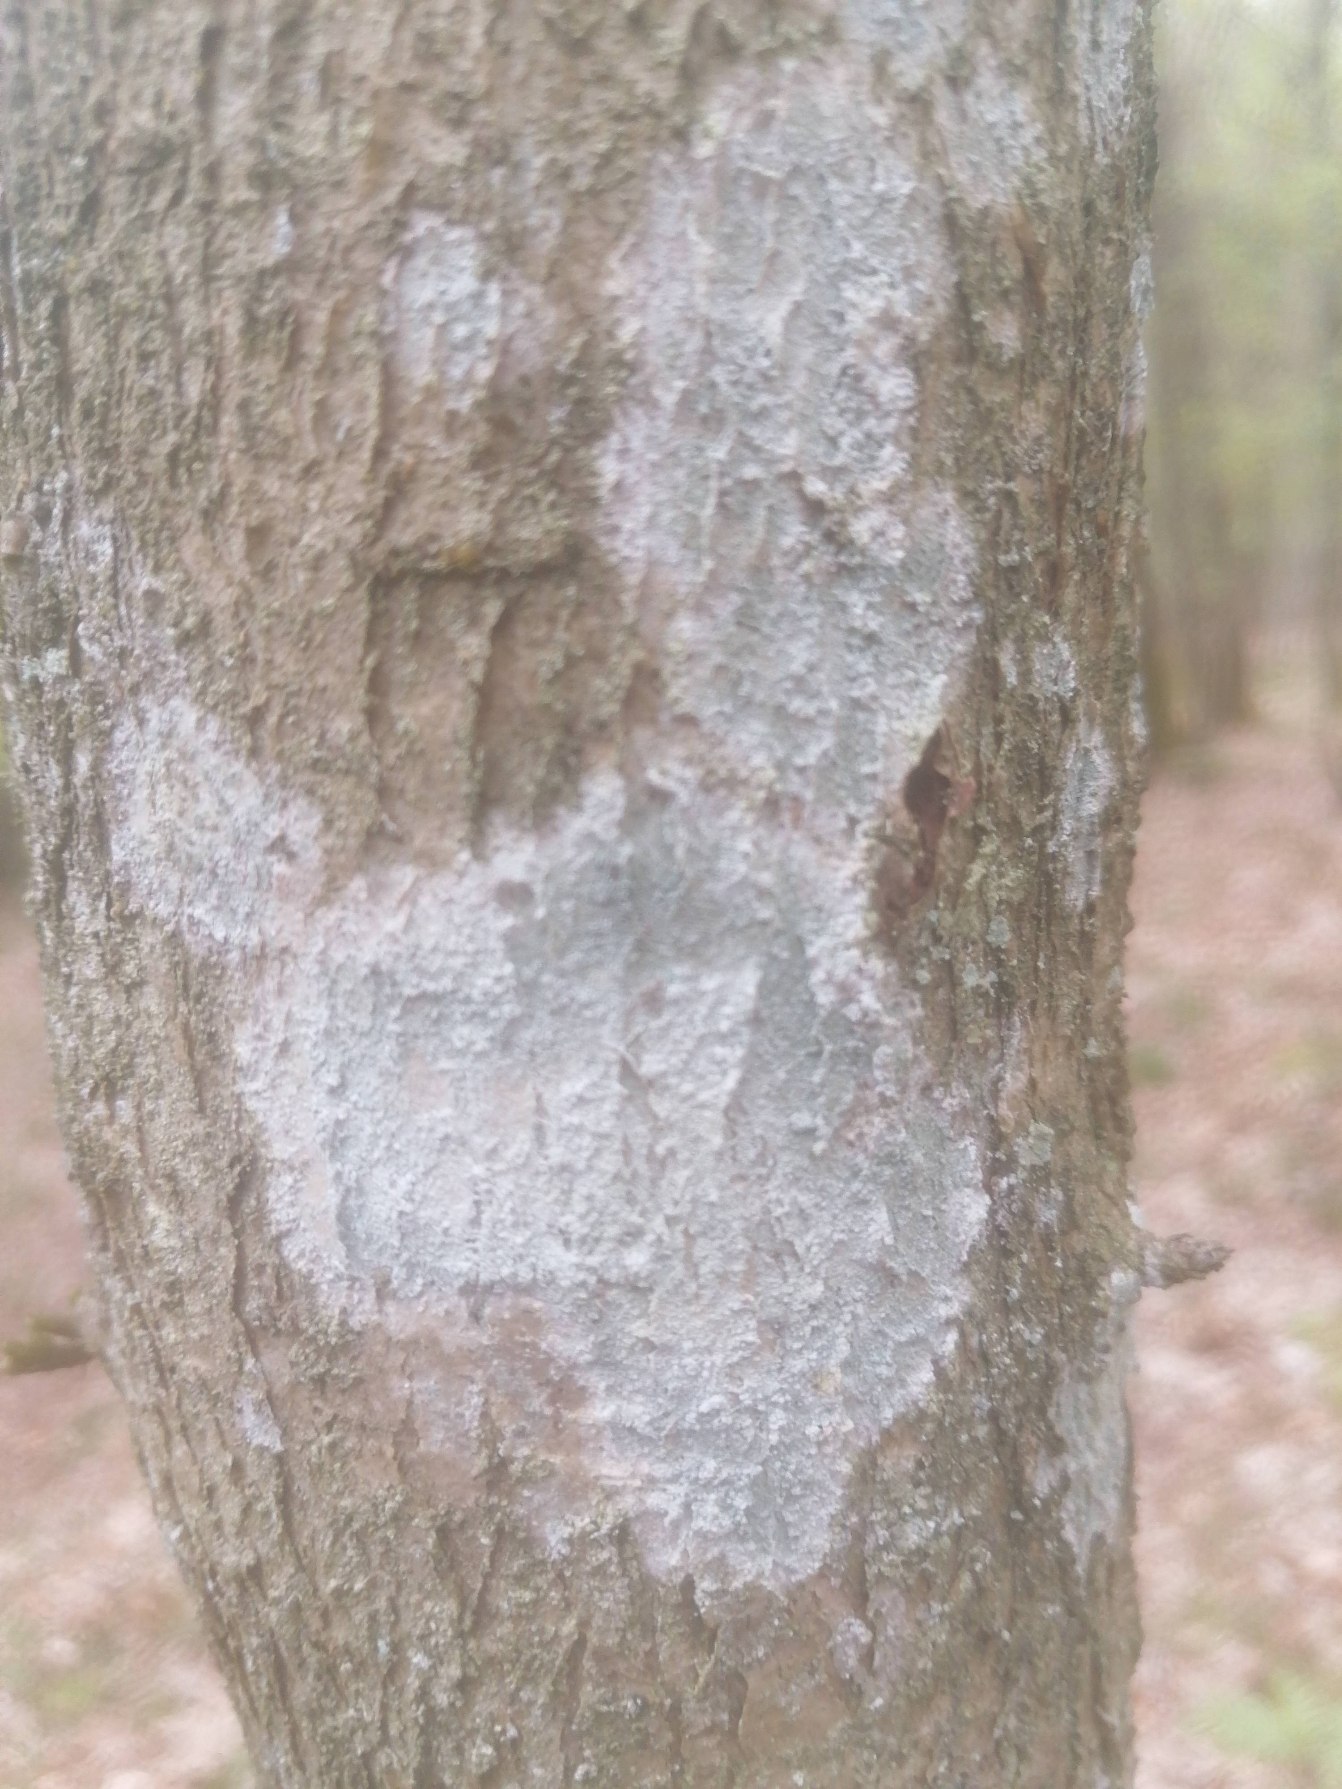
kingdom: Fungi
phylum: Ascomycota
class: Lecanoromycetes
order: Ostropales
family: Phlyctidaceae
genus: Phlyctis
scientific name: Phlyctis argena
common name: Almindelig sølvlav
